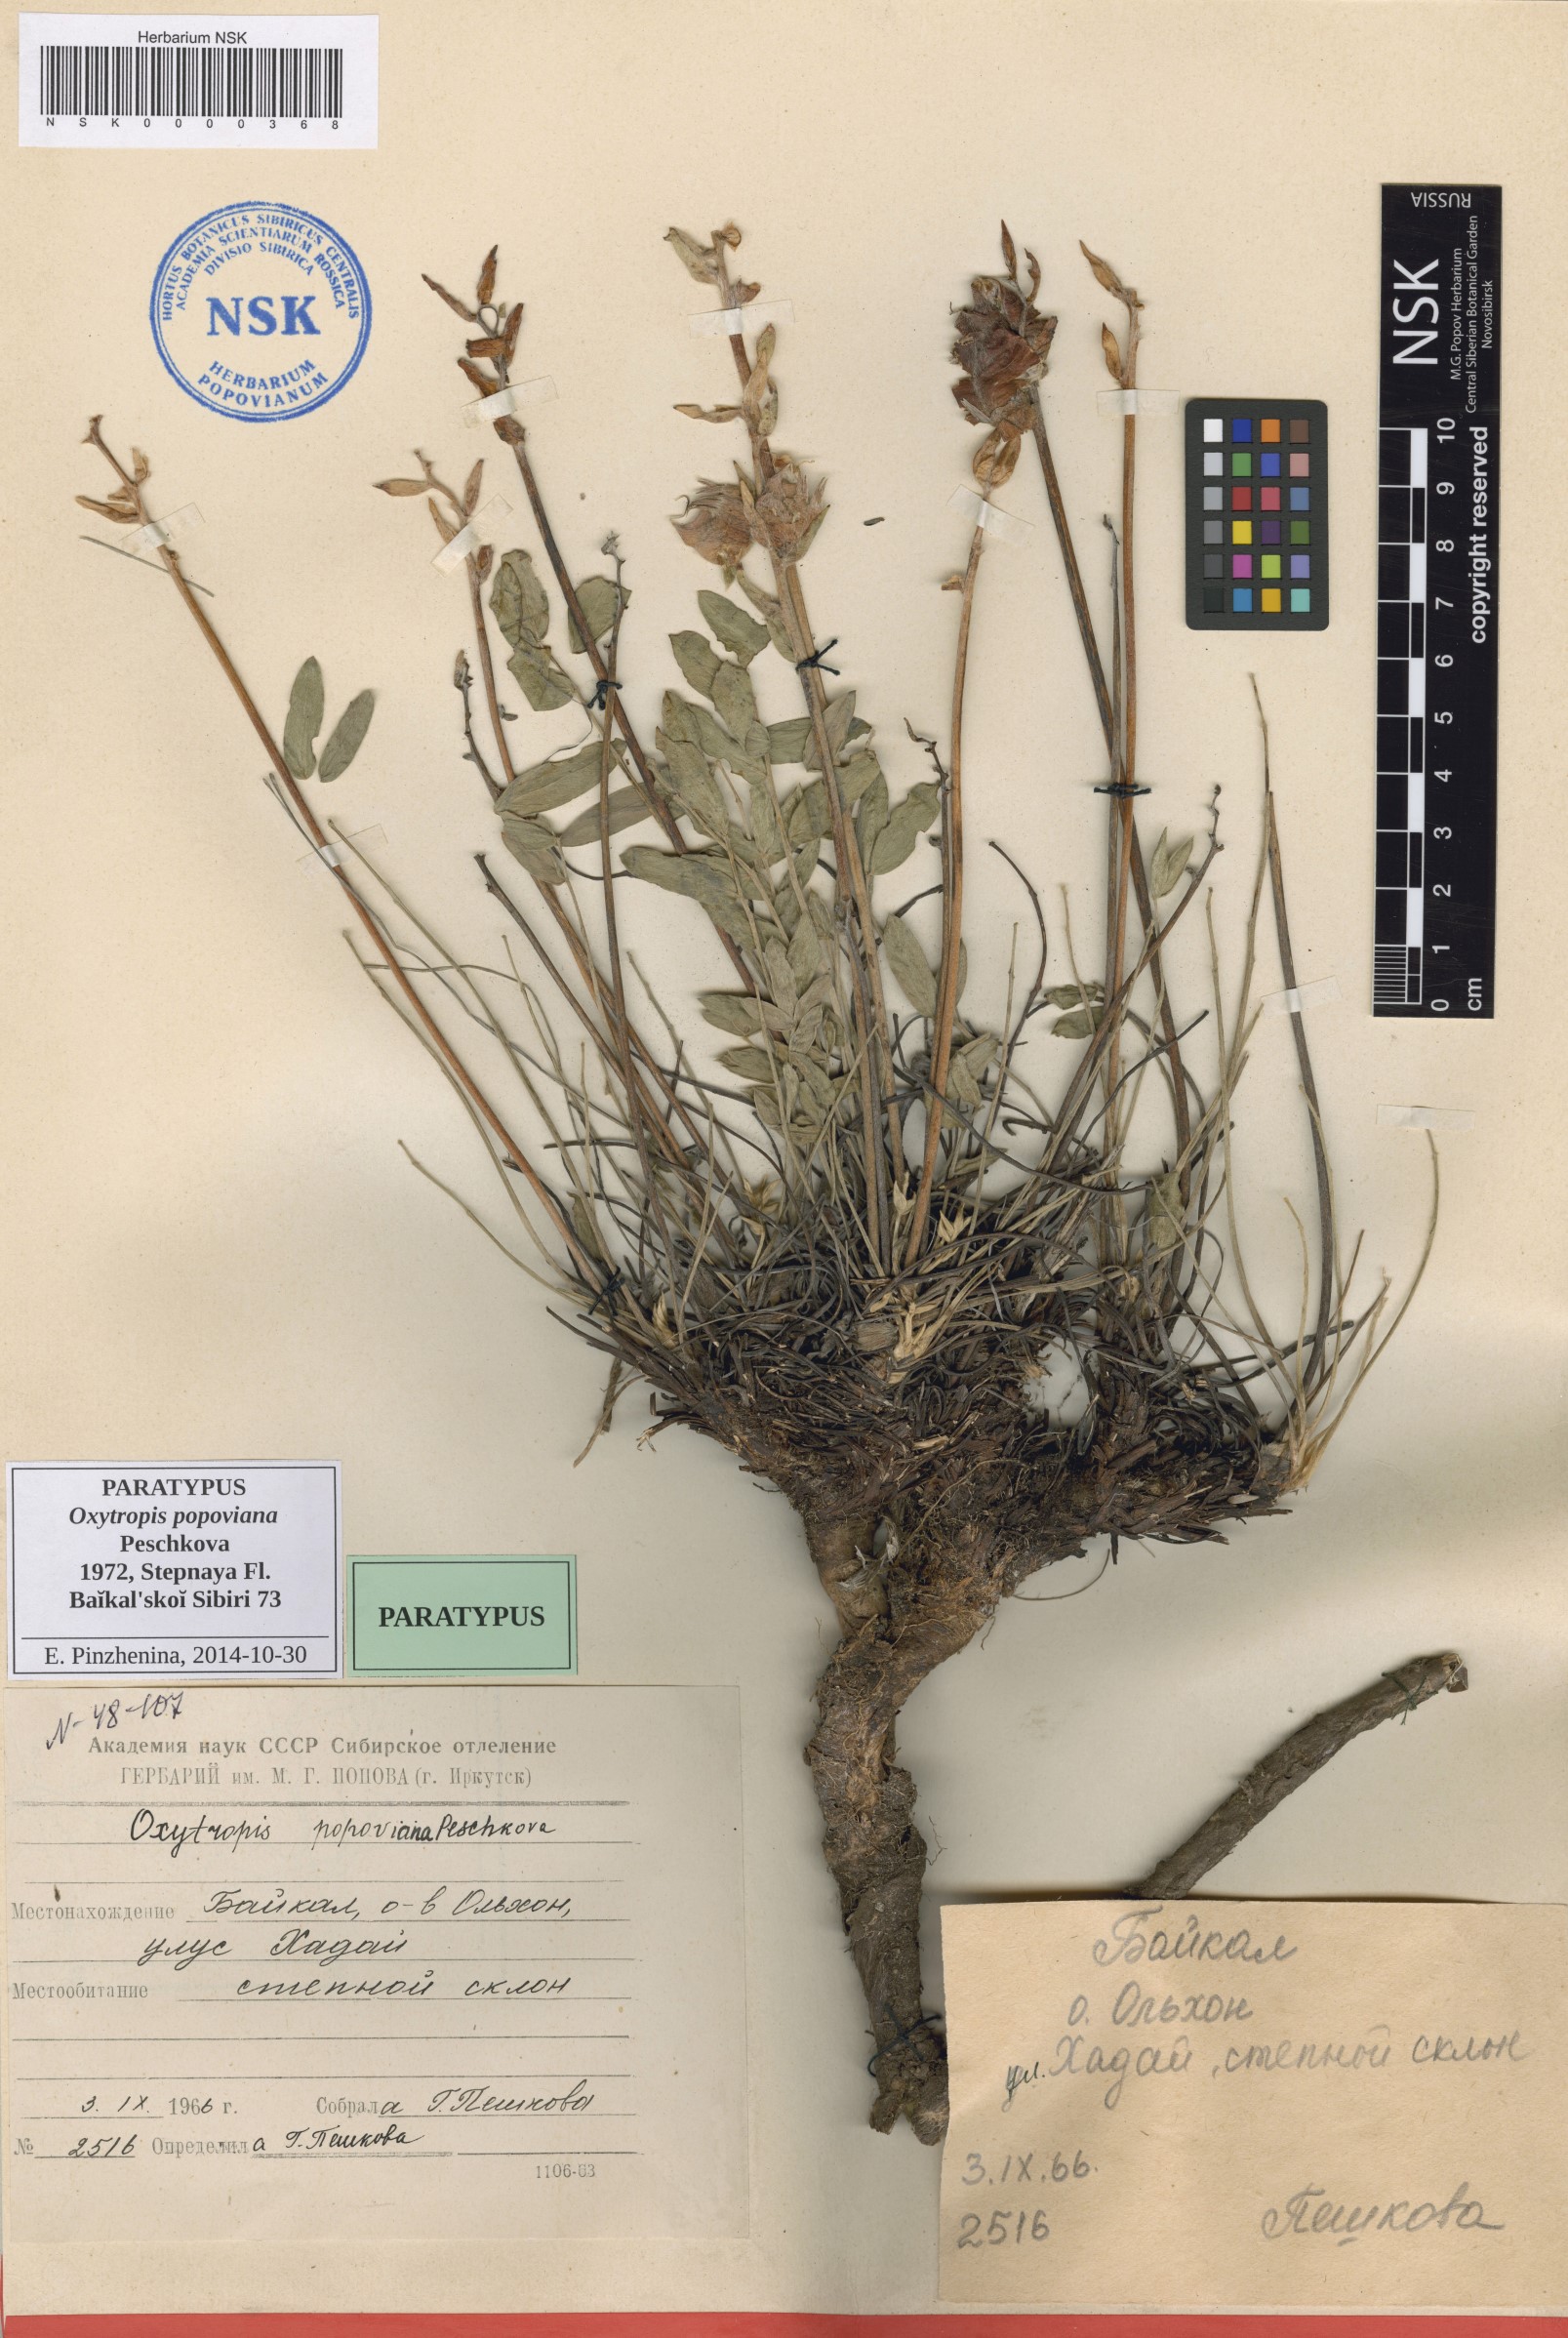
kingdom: Plantae
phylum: Tracheophyta
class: Magnoliopsida
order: Fabales
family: Fabaceae
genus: Oxytropis
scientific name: Oxytropis popoviana
